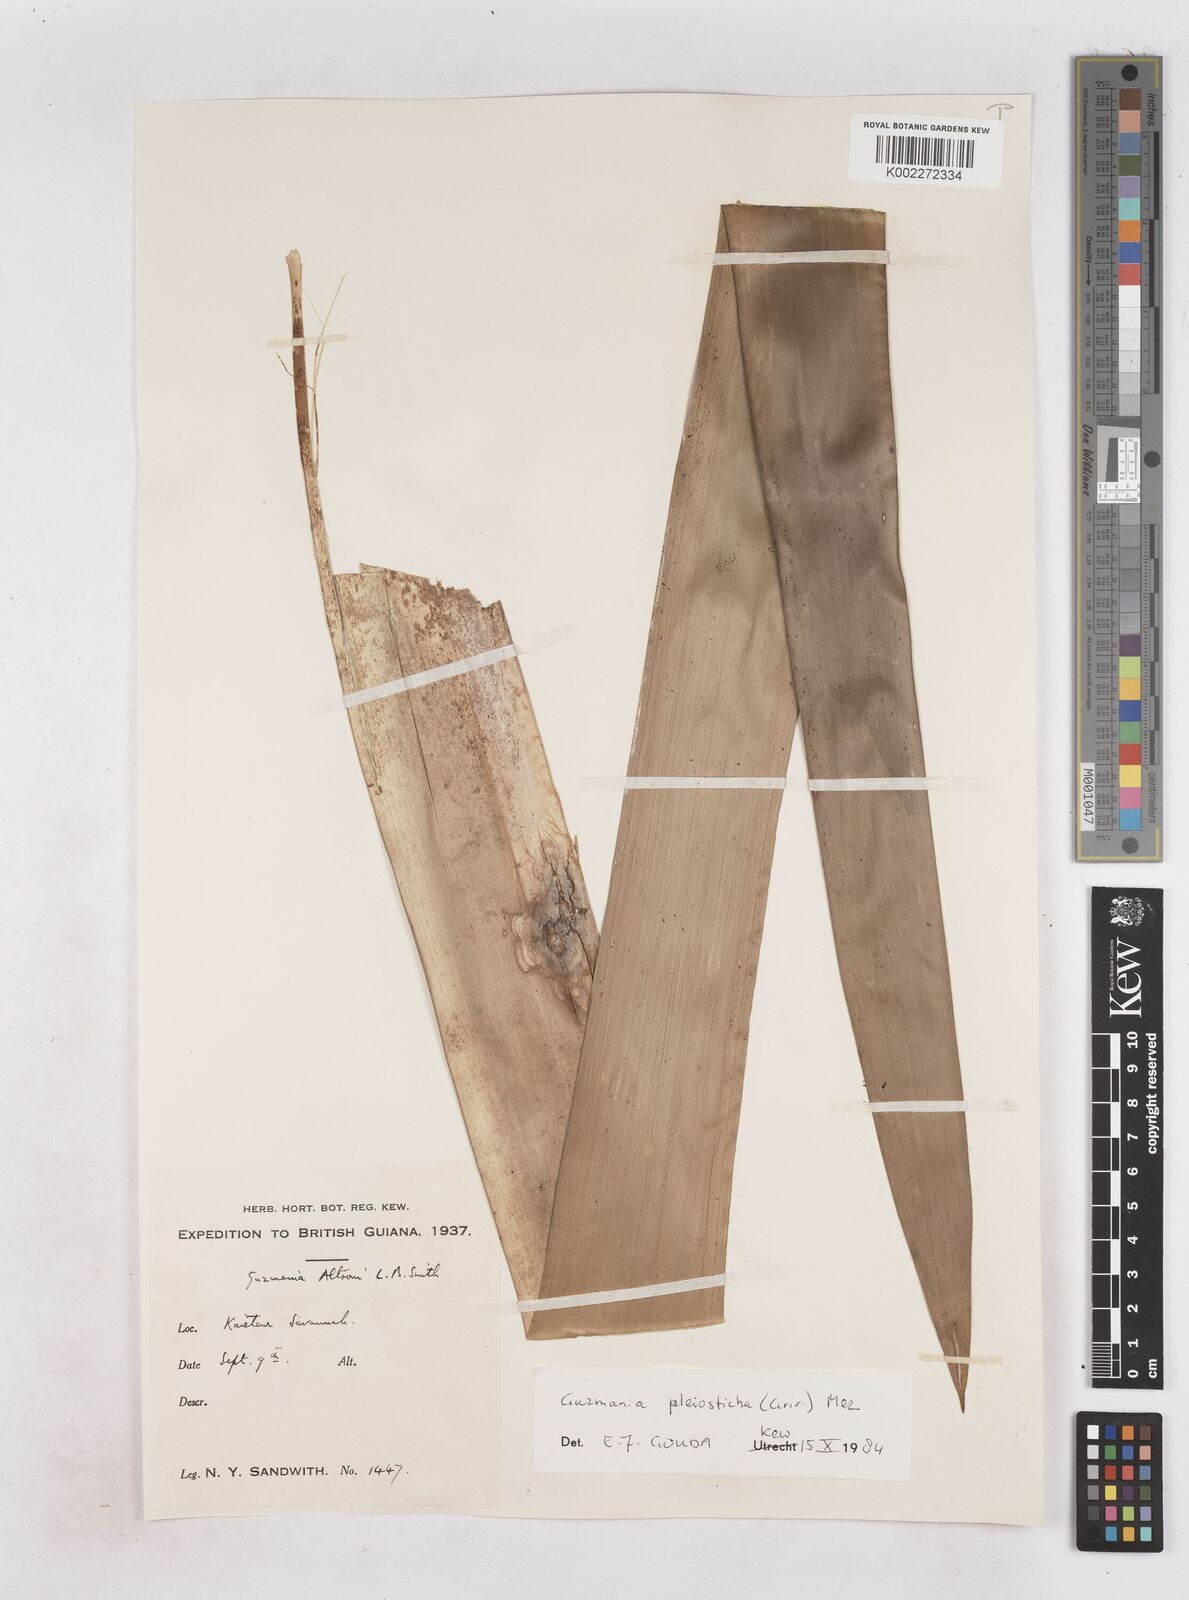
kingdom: Plantae
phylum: Tracheophyta
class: Liliopsida
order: Poales
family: Bromeliaceae
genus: Guzmania
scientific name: Guzmania altsonii
